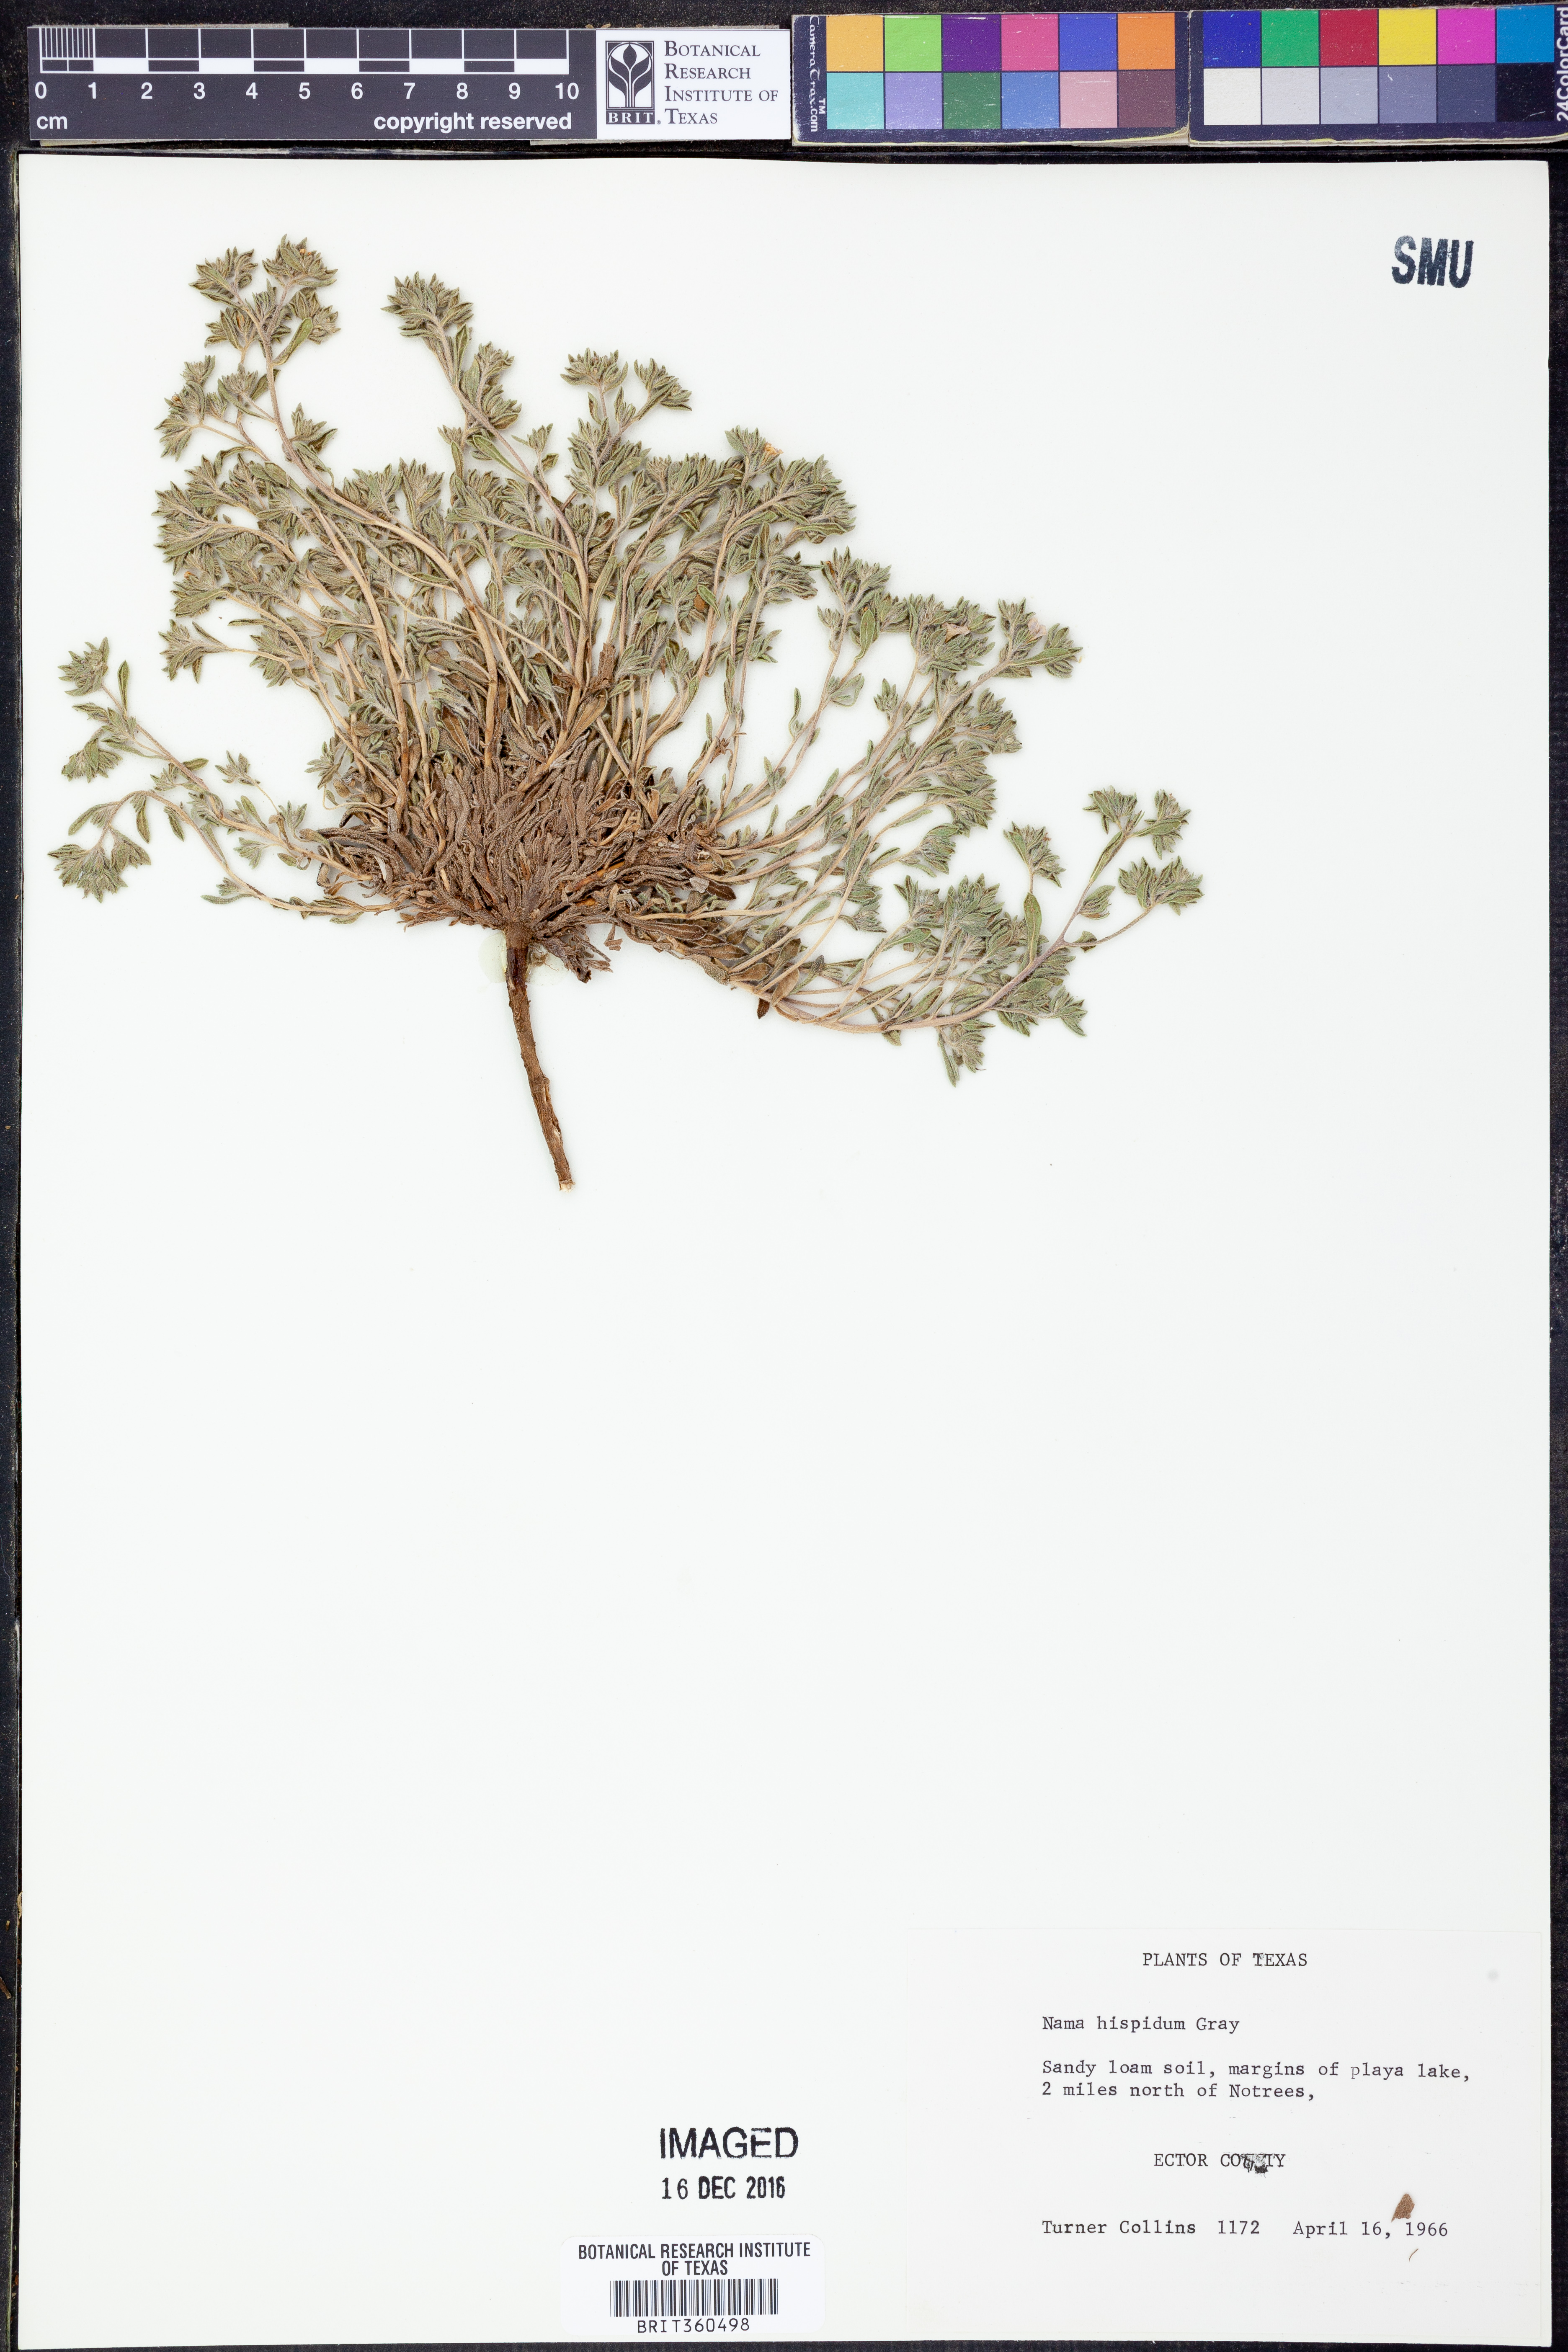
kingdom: Plantae
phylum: Tracheophyta
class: Magnoliopsida
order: Boraginales
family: Namaceae
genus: Nama
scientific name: Nama hispida
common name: Bristly nama
